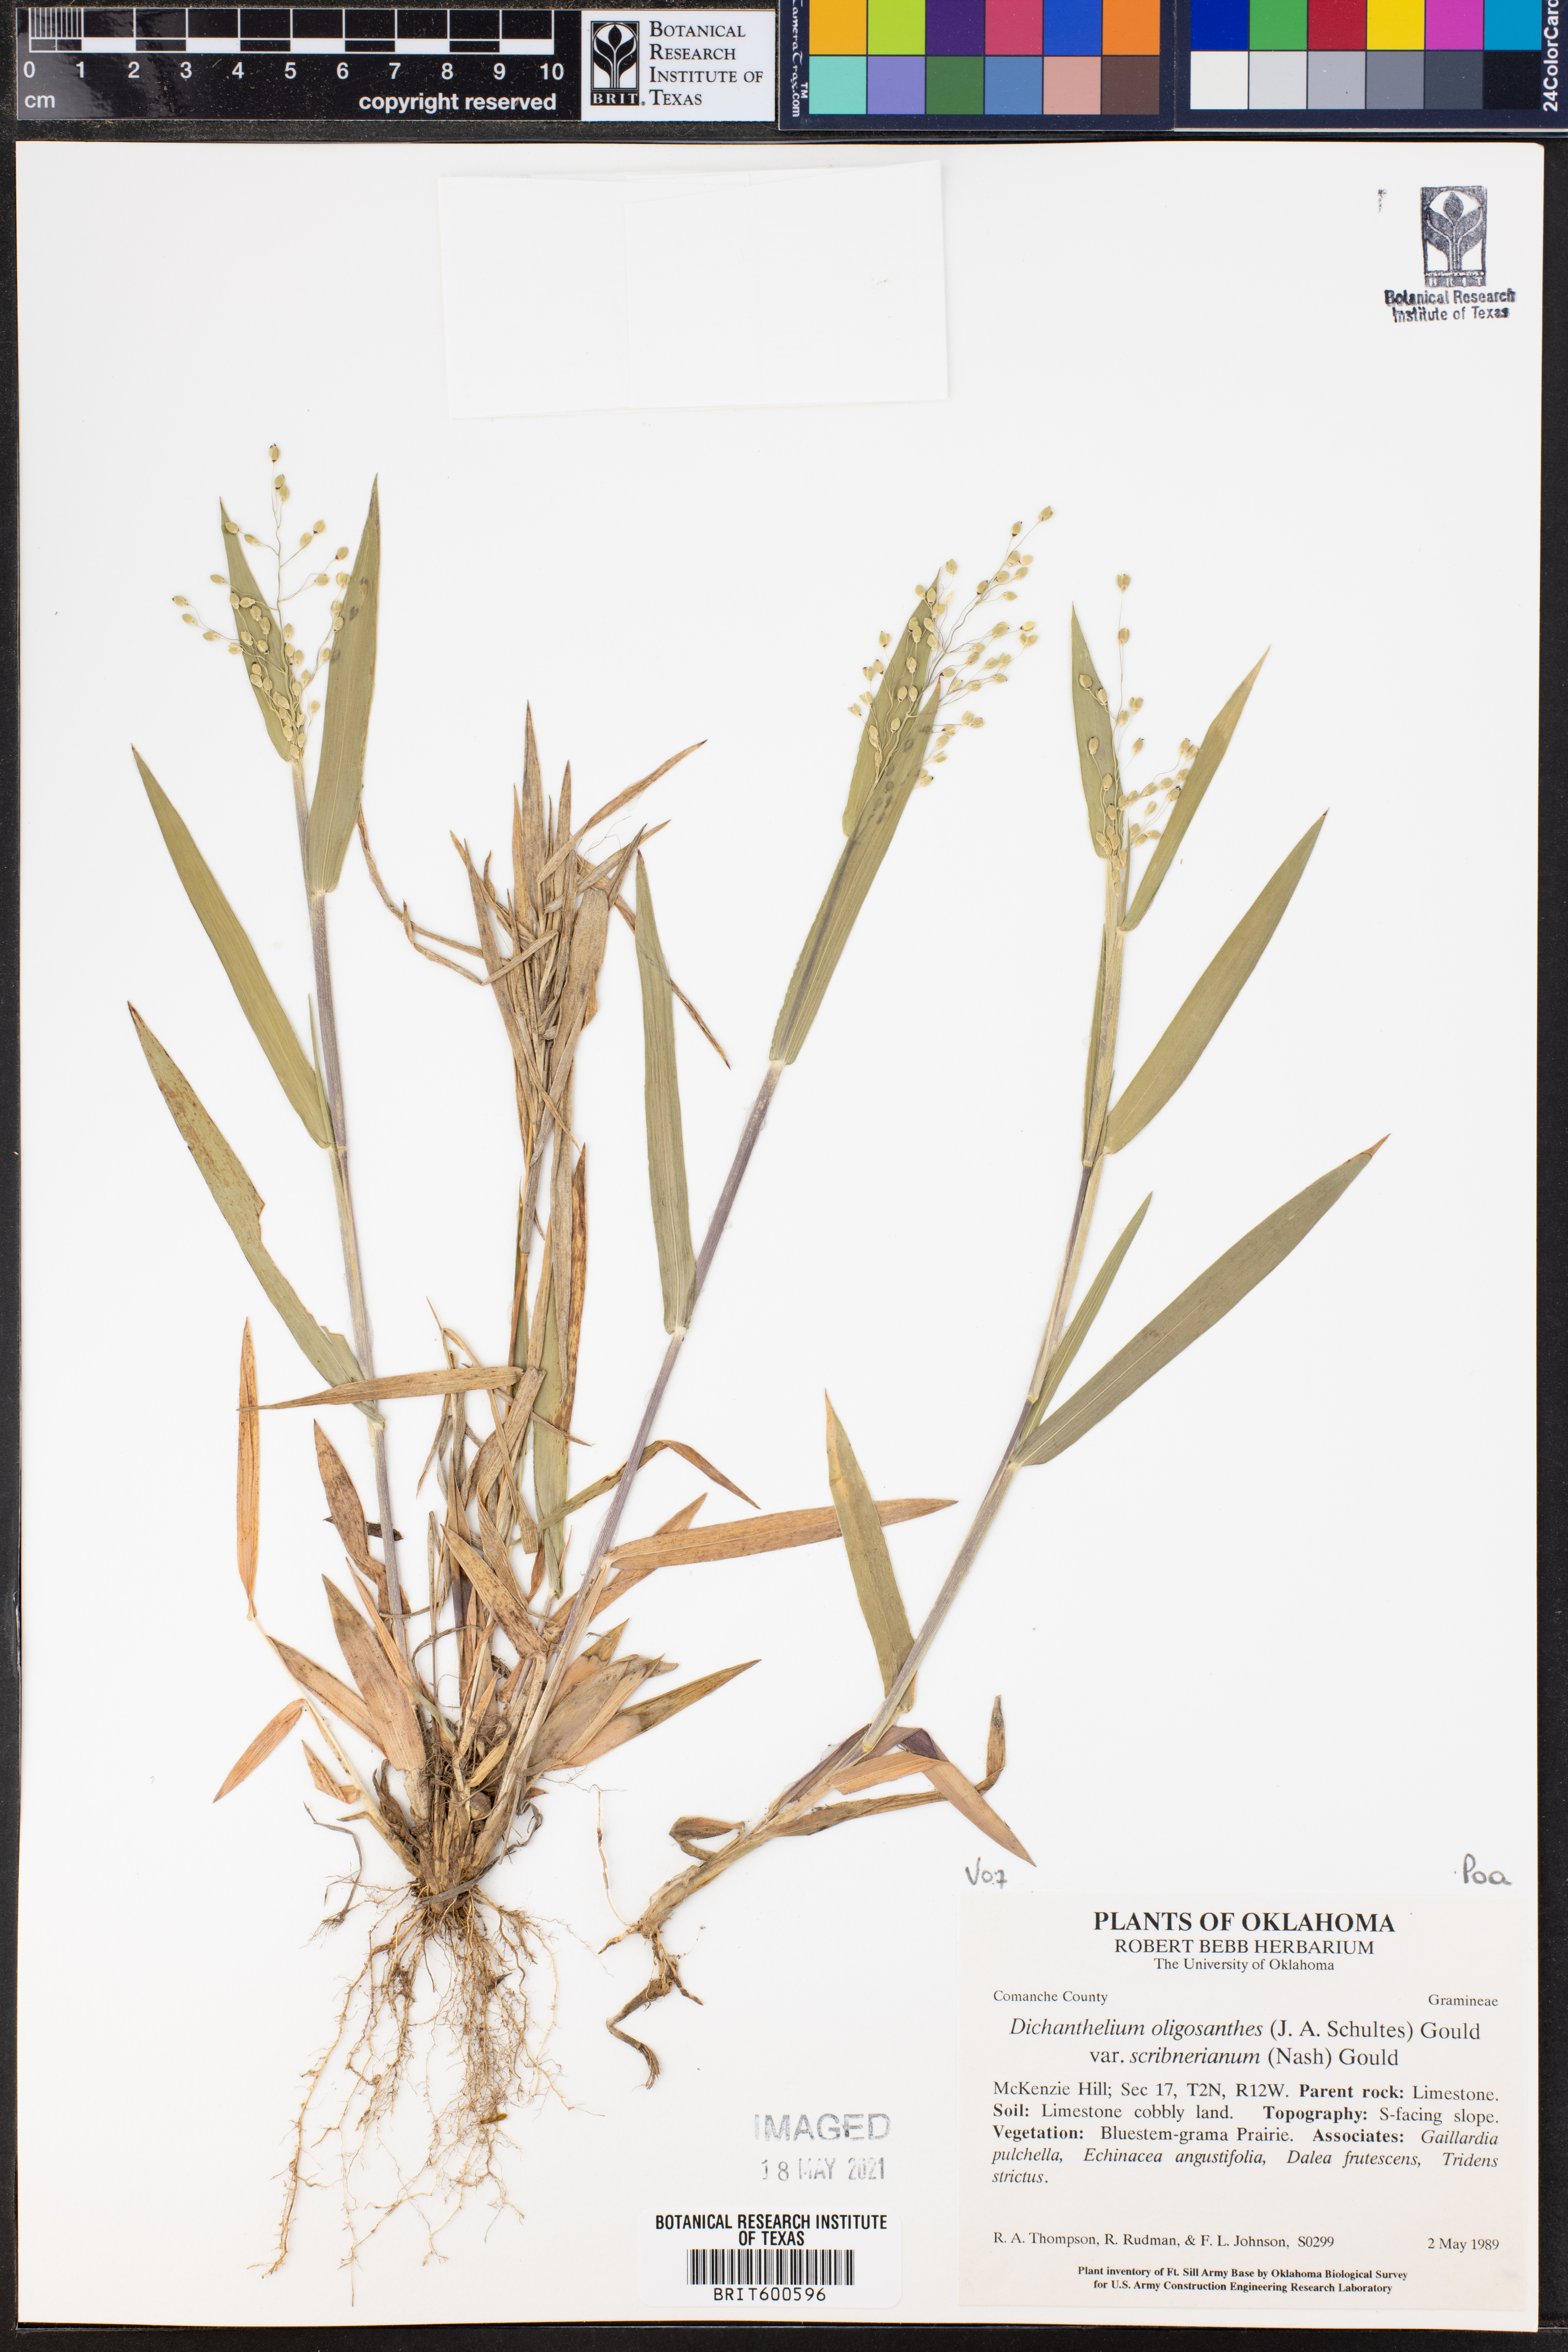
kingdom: Plantae
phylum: Tracheophyta
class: Liliopsida
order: Poales
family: Poaceae
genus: Dichanthelium
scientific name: Dichanthelium scribnerianum
